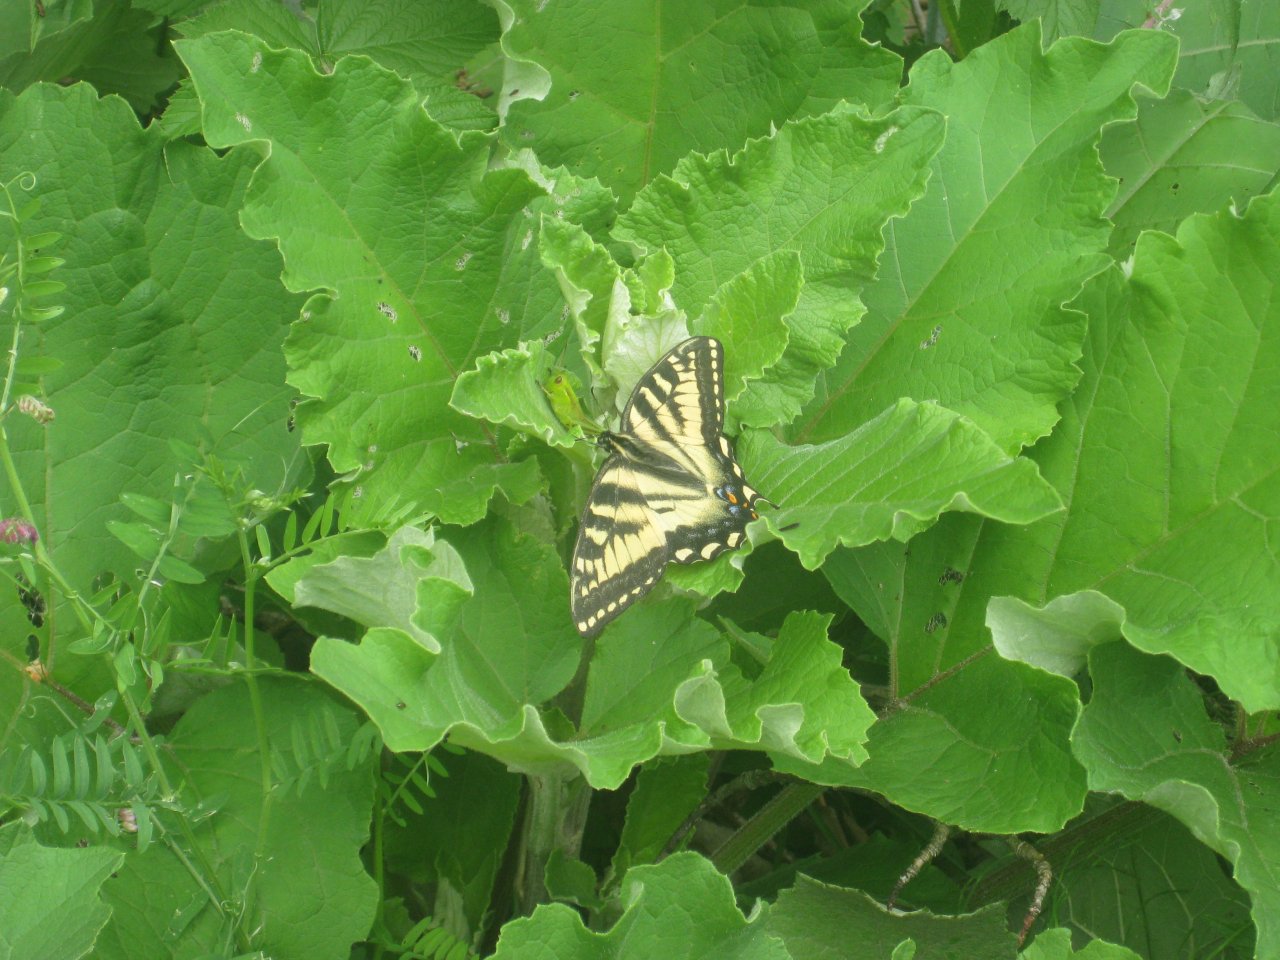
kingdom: Animalia
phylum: Arthropoda
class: Insecta
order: Lepidoptera
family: Papilionidae
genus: Pterourus
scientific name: Pterourus canadensis
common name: Canadian Tiger Swallowtail
